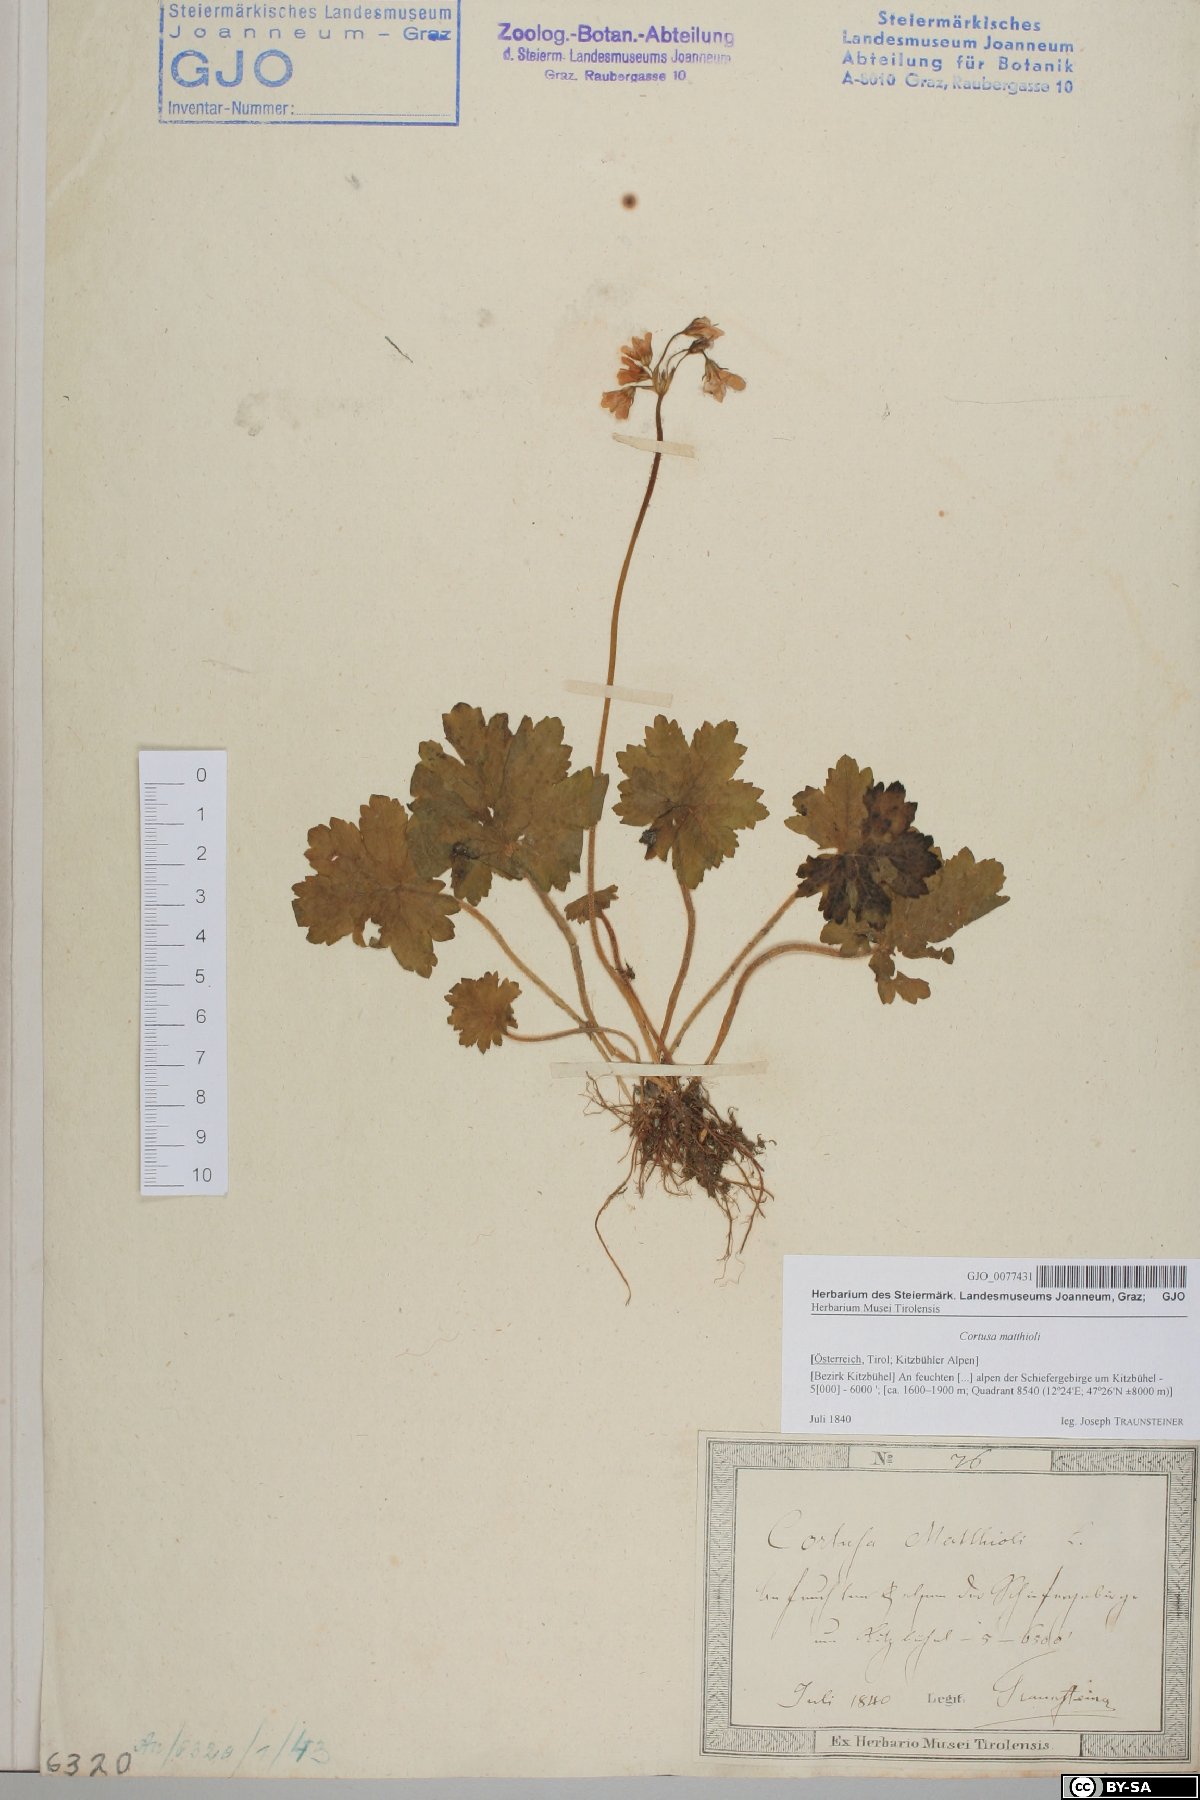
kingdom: Plantae
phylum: Tracheophyta
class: Magnoliopsida
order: Ericales
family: Primulaceae
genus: Primula
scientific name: Primula matthioli
